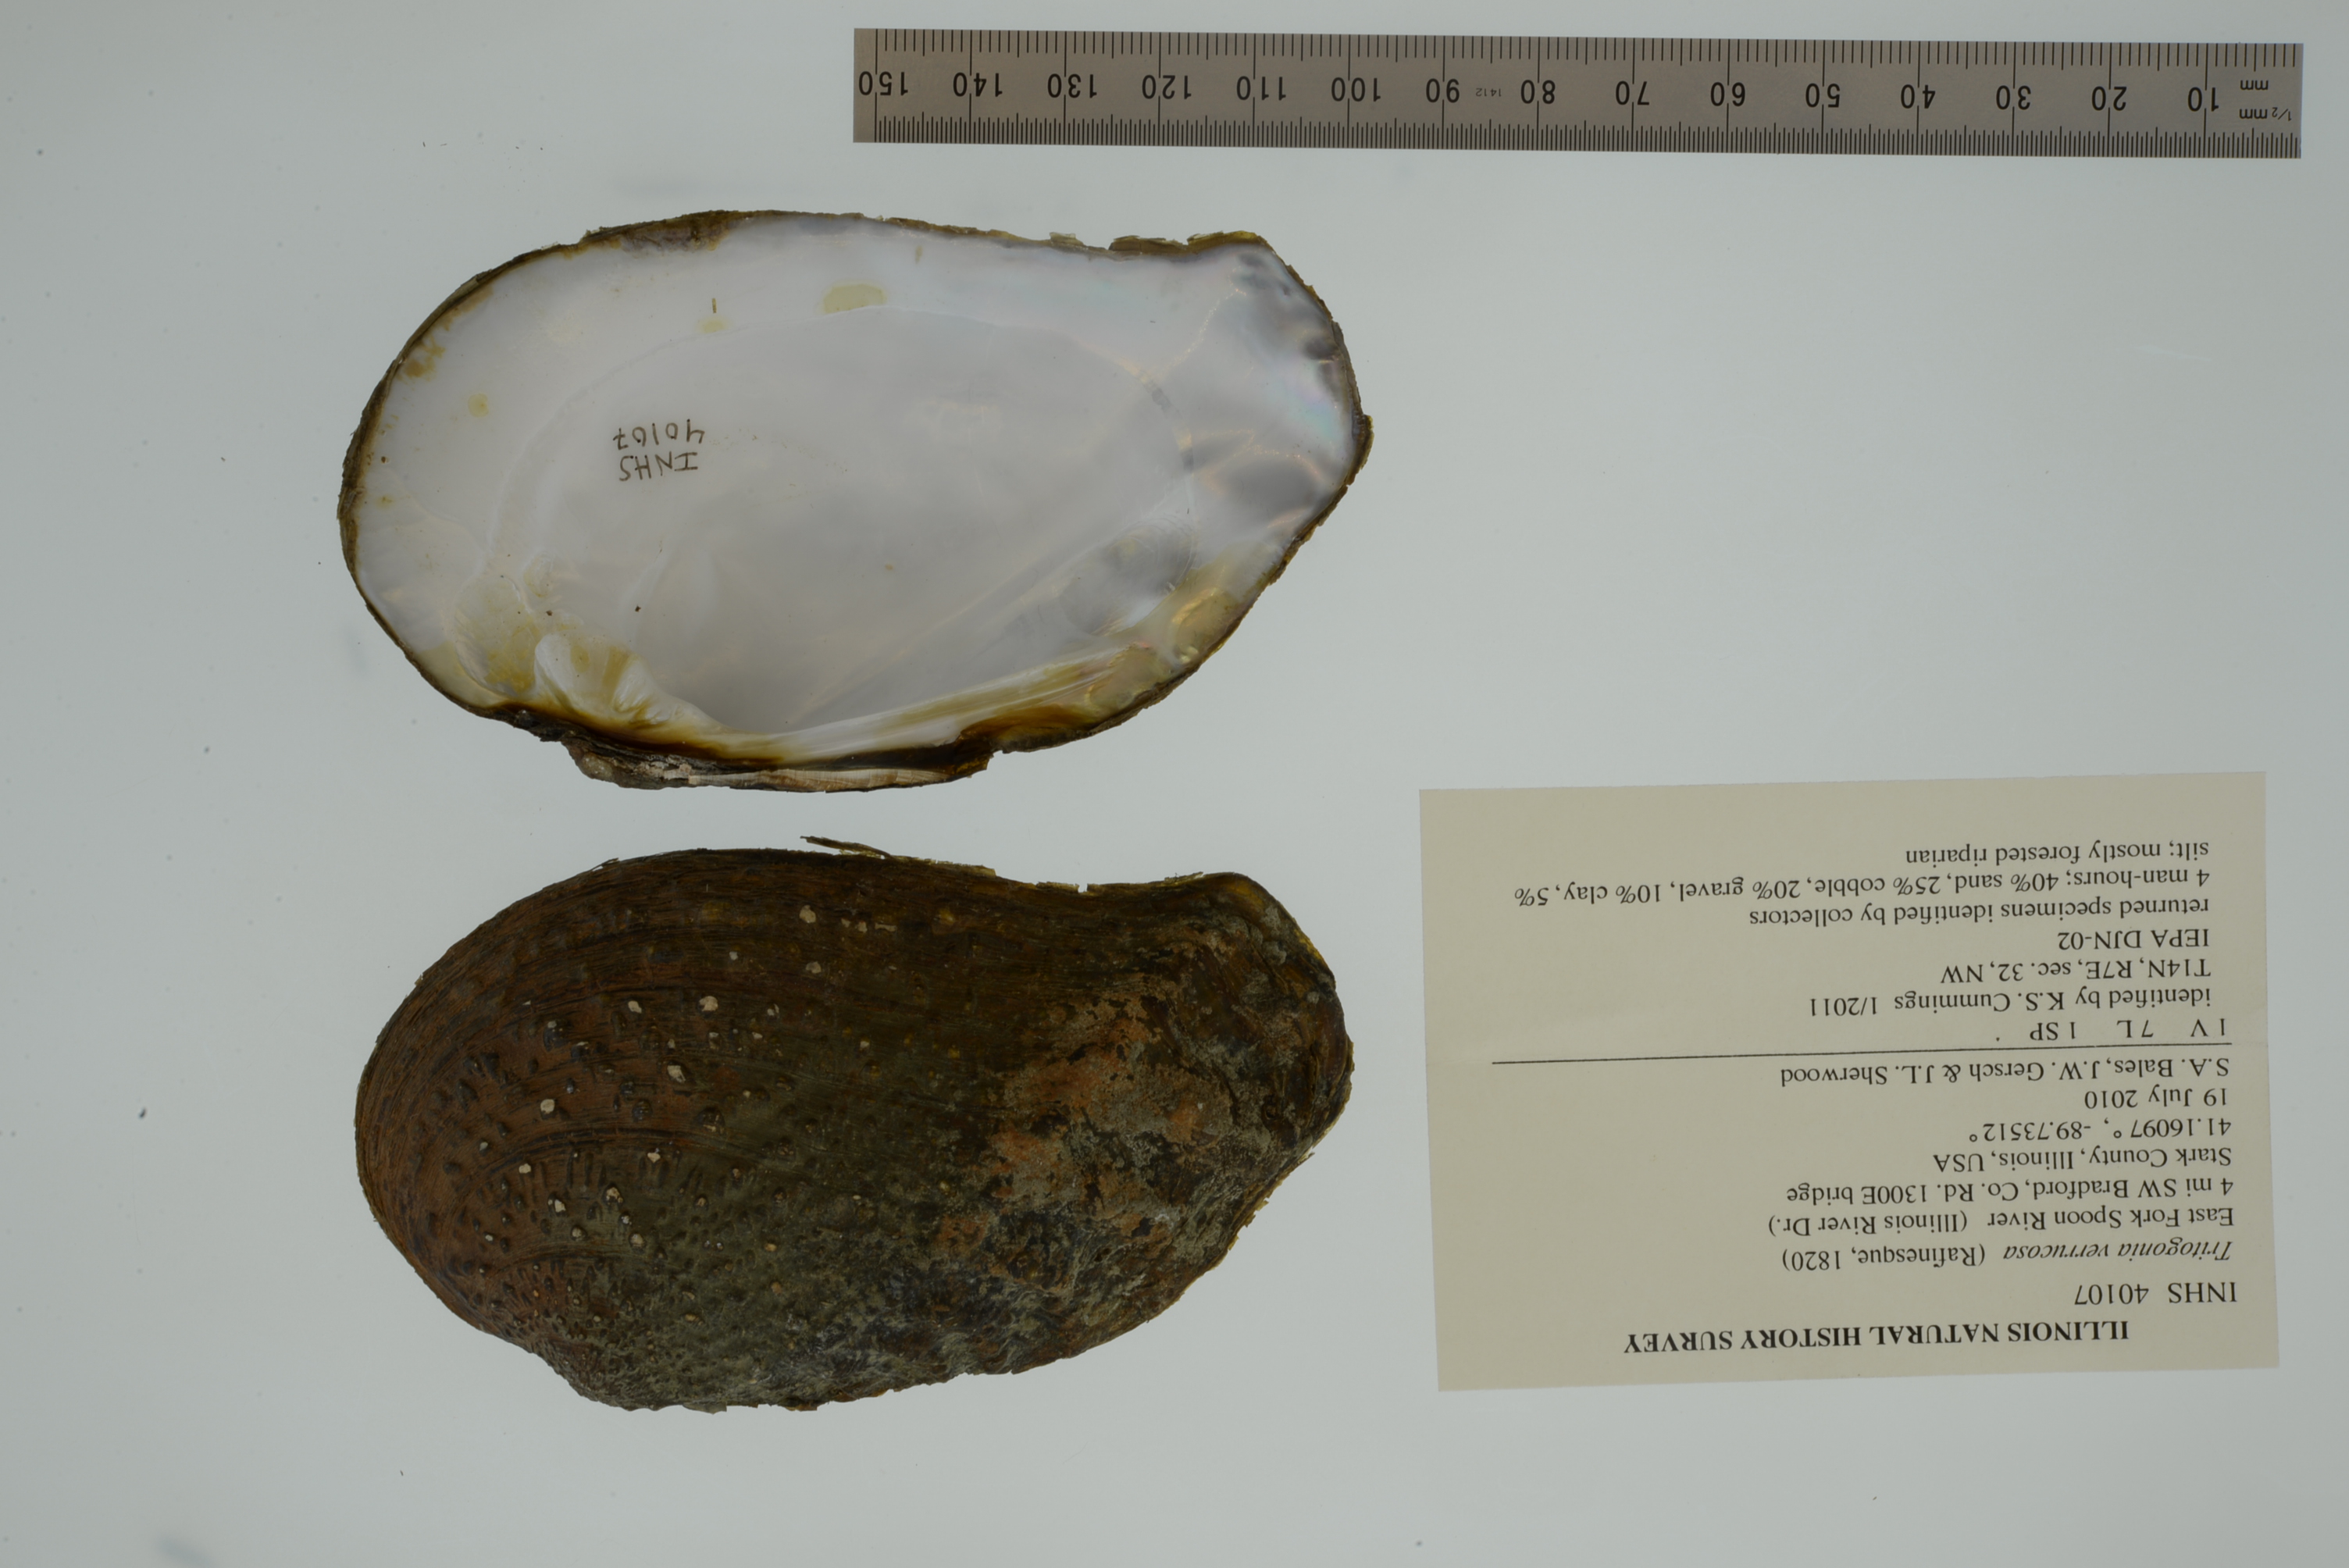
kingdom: Animalia
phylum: Mollusca
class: Bivalvia
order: Unionida
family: Unionidae
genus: Tritogonia
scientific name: Tritogonia verrucosa
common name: Pistolgrip
